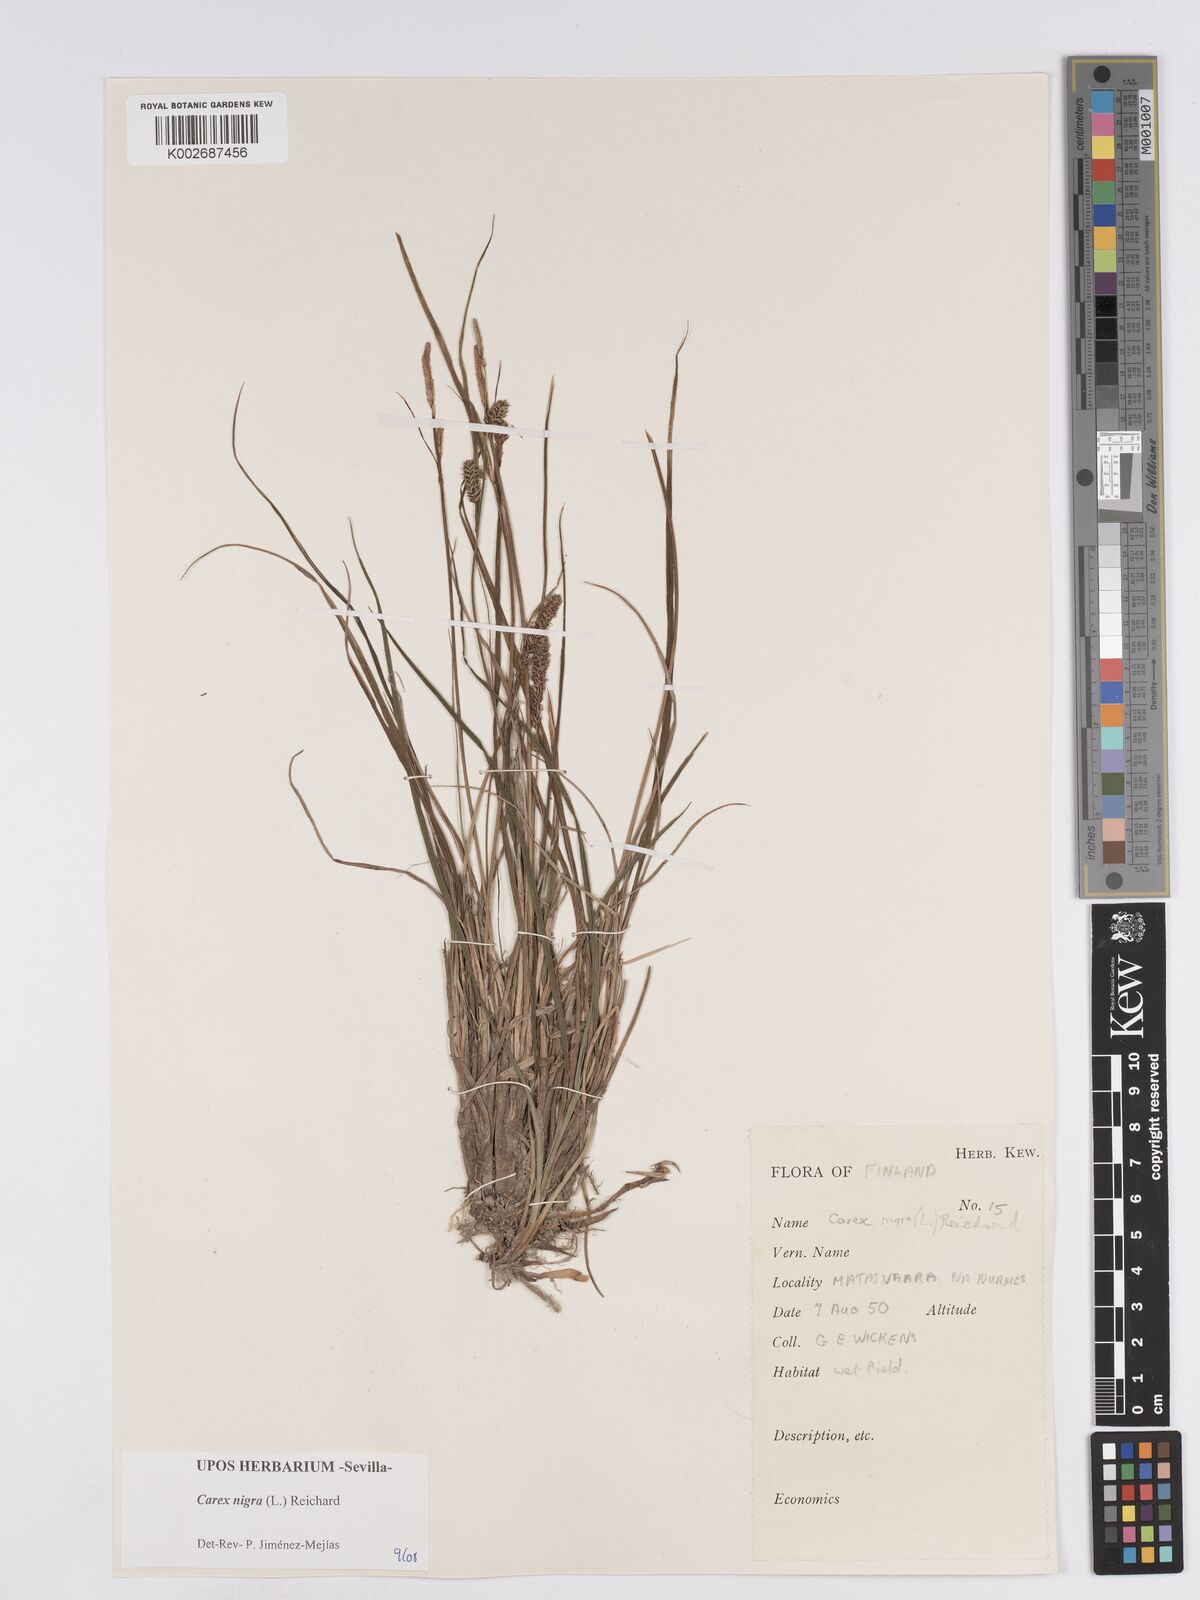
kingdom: Plantae
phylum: Tracheophyta
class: Liliopsida
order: Poales
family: Cyperaceae
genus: Carex
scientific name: Carex nigra
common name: Common sedge
